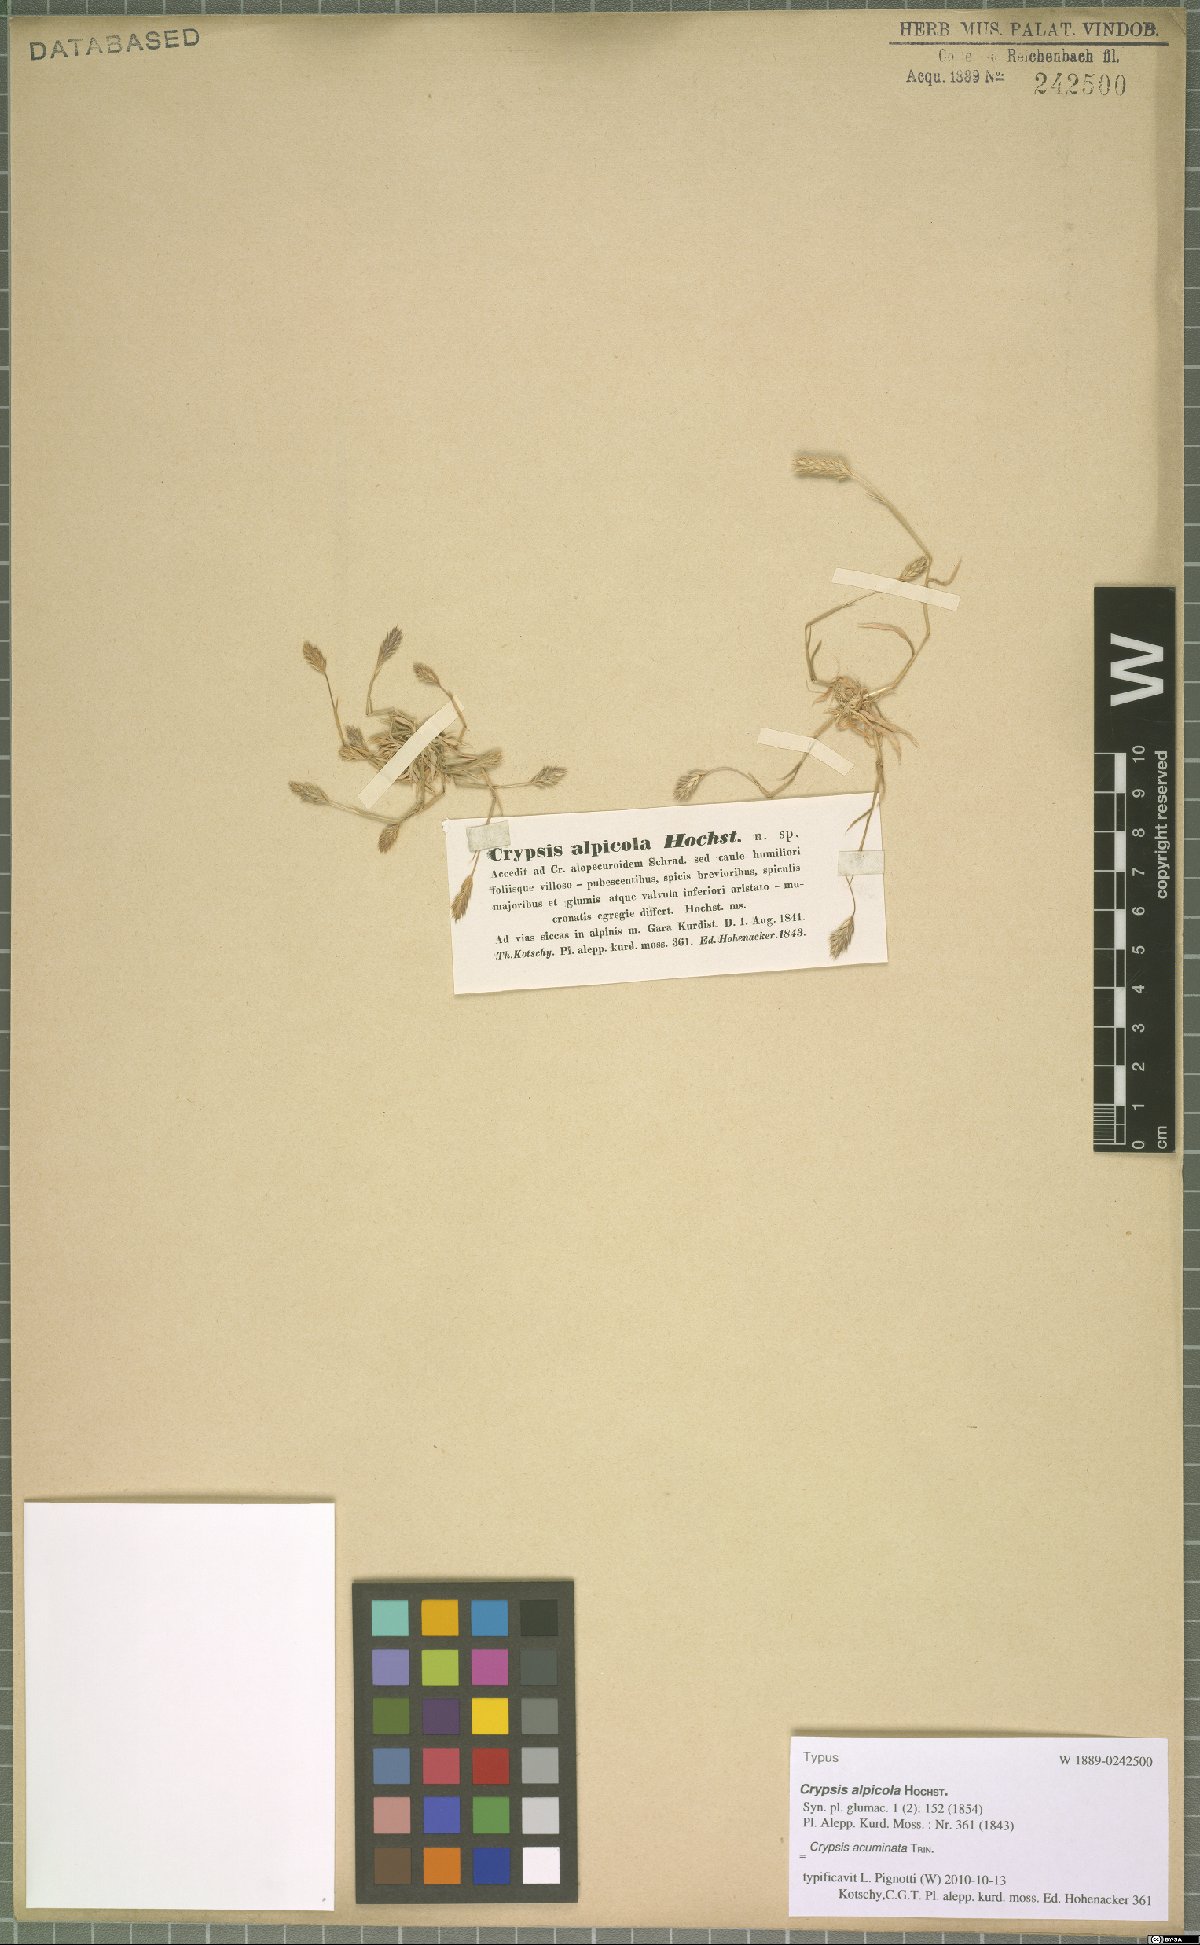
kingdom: Plantae
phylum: Tracheophyta
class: Liliopsida
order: Poales
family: Poaceae
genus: Sporobolus
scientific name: Sporobolus borszczowii
